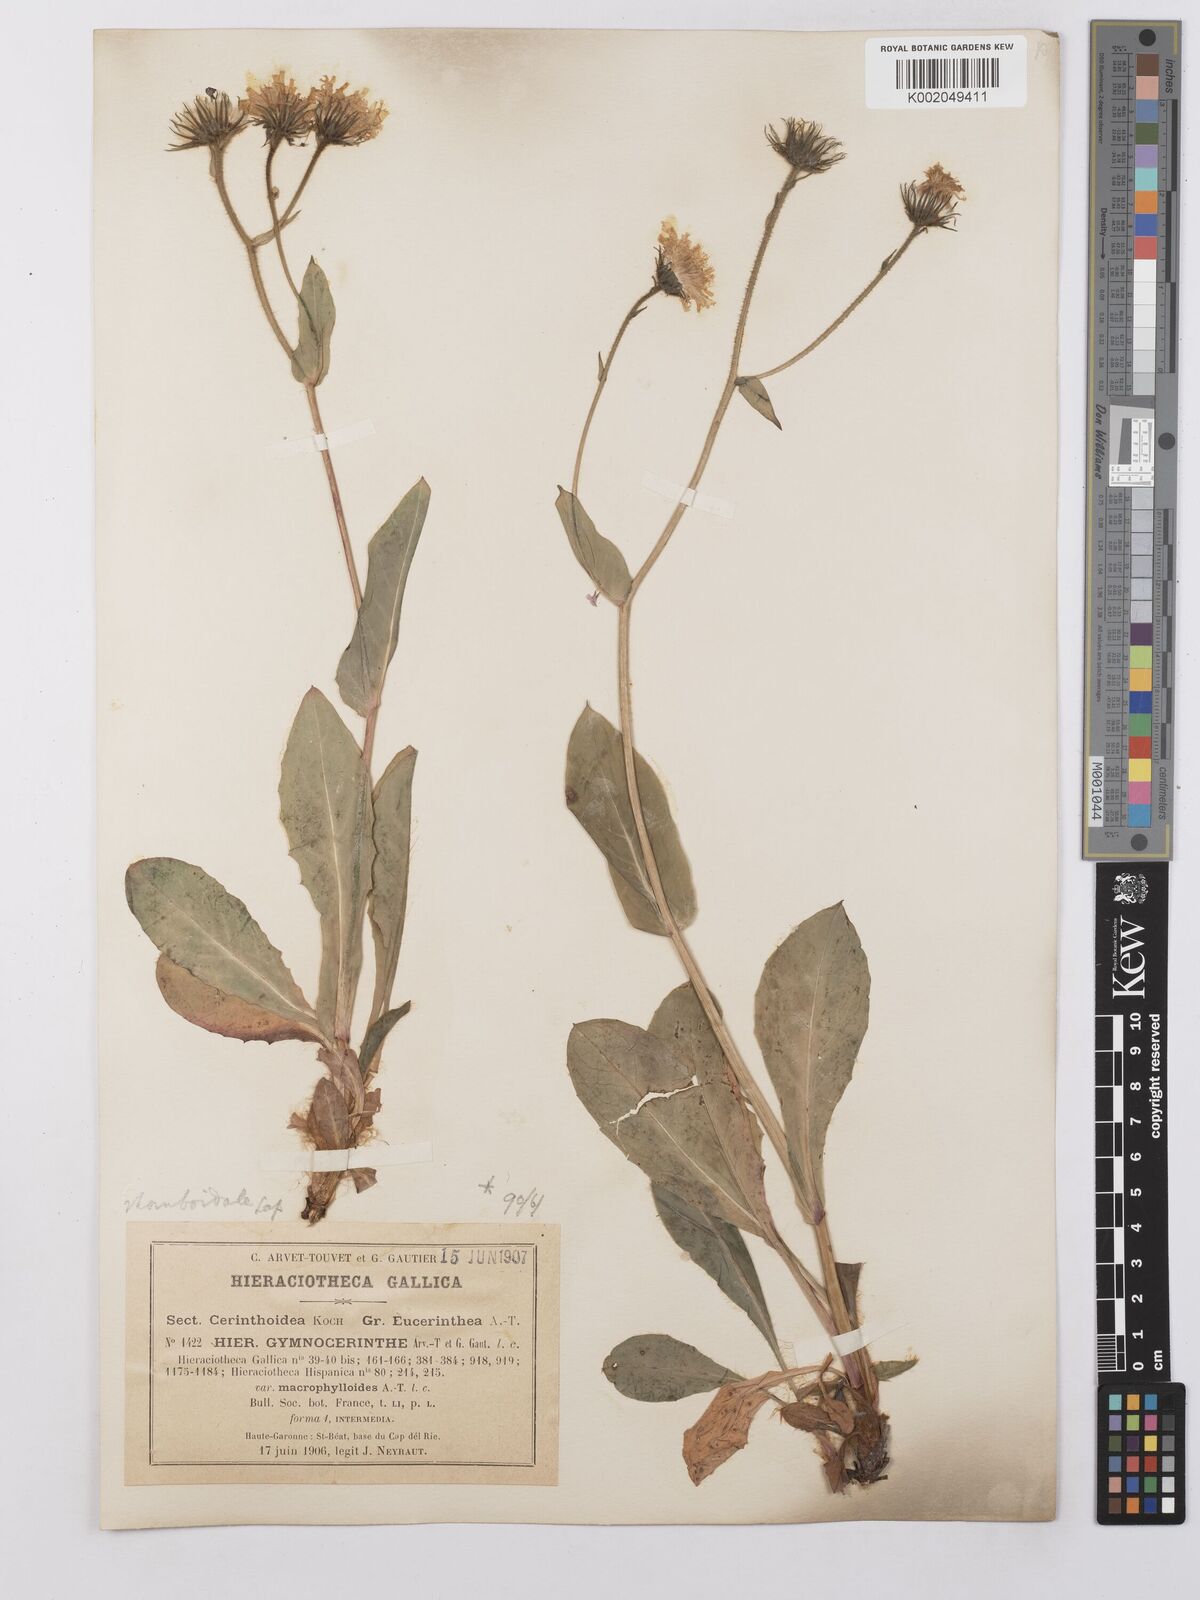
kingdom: Plantae
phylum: Tracheophyta
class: Magnoliopsida
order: Asterales
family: Asteraceae
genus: Hieracium
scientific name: Hieracium cerinthoides
